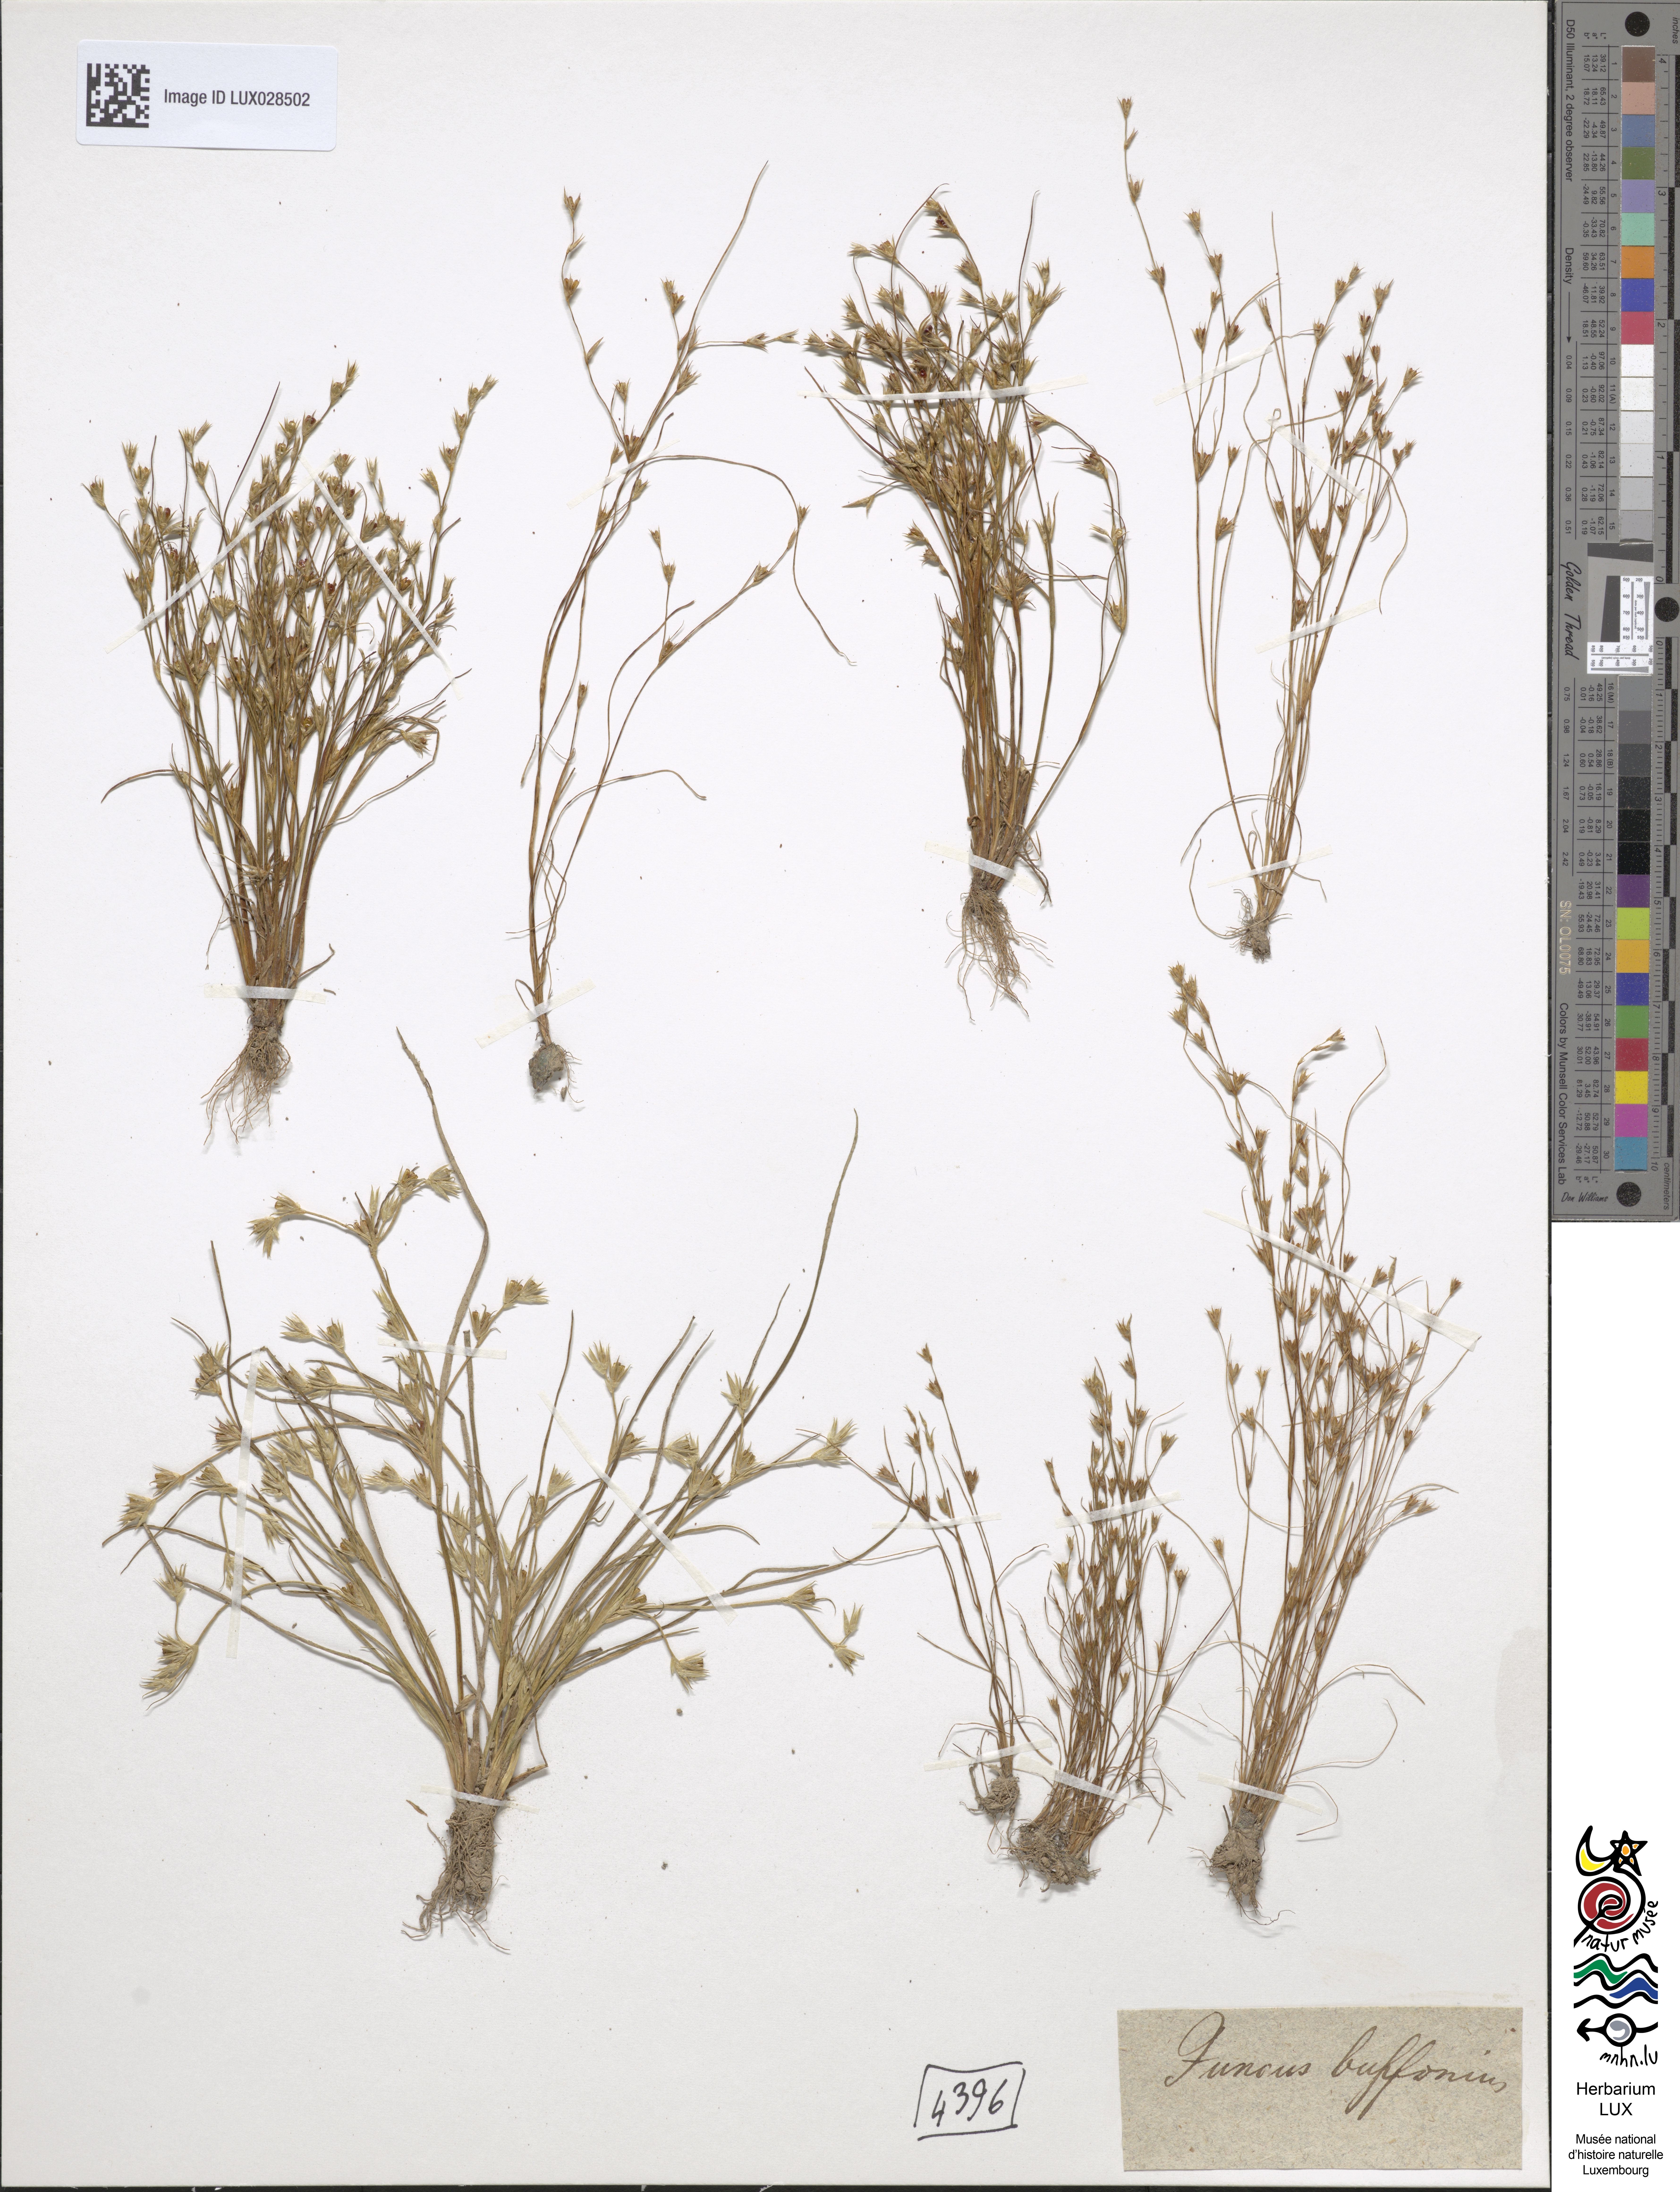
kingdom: Plantae
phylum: Tracheophyta
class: Liliopsida
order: Poales
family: Juncaceae
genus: Juncus
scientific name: Juncus bufonius
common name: Toad rush
